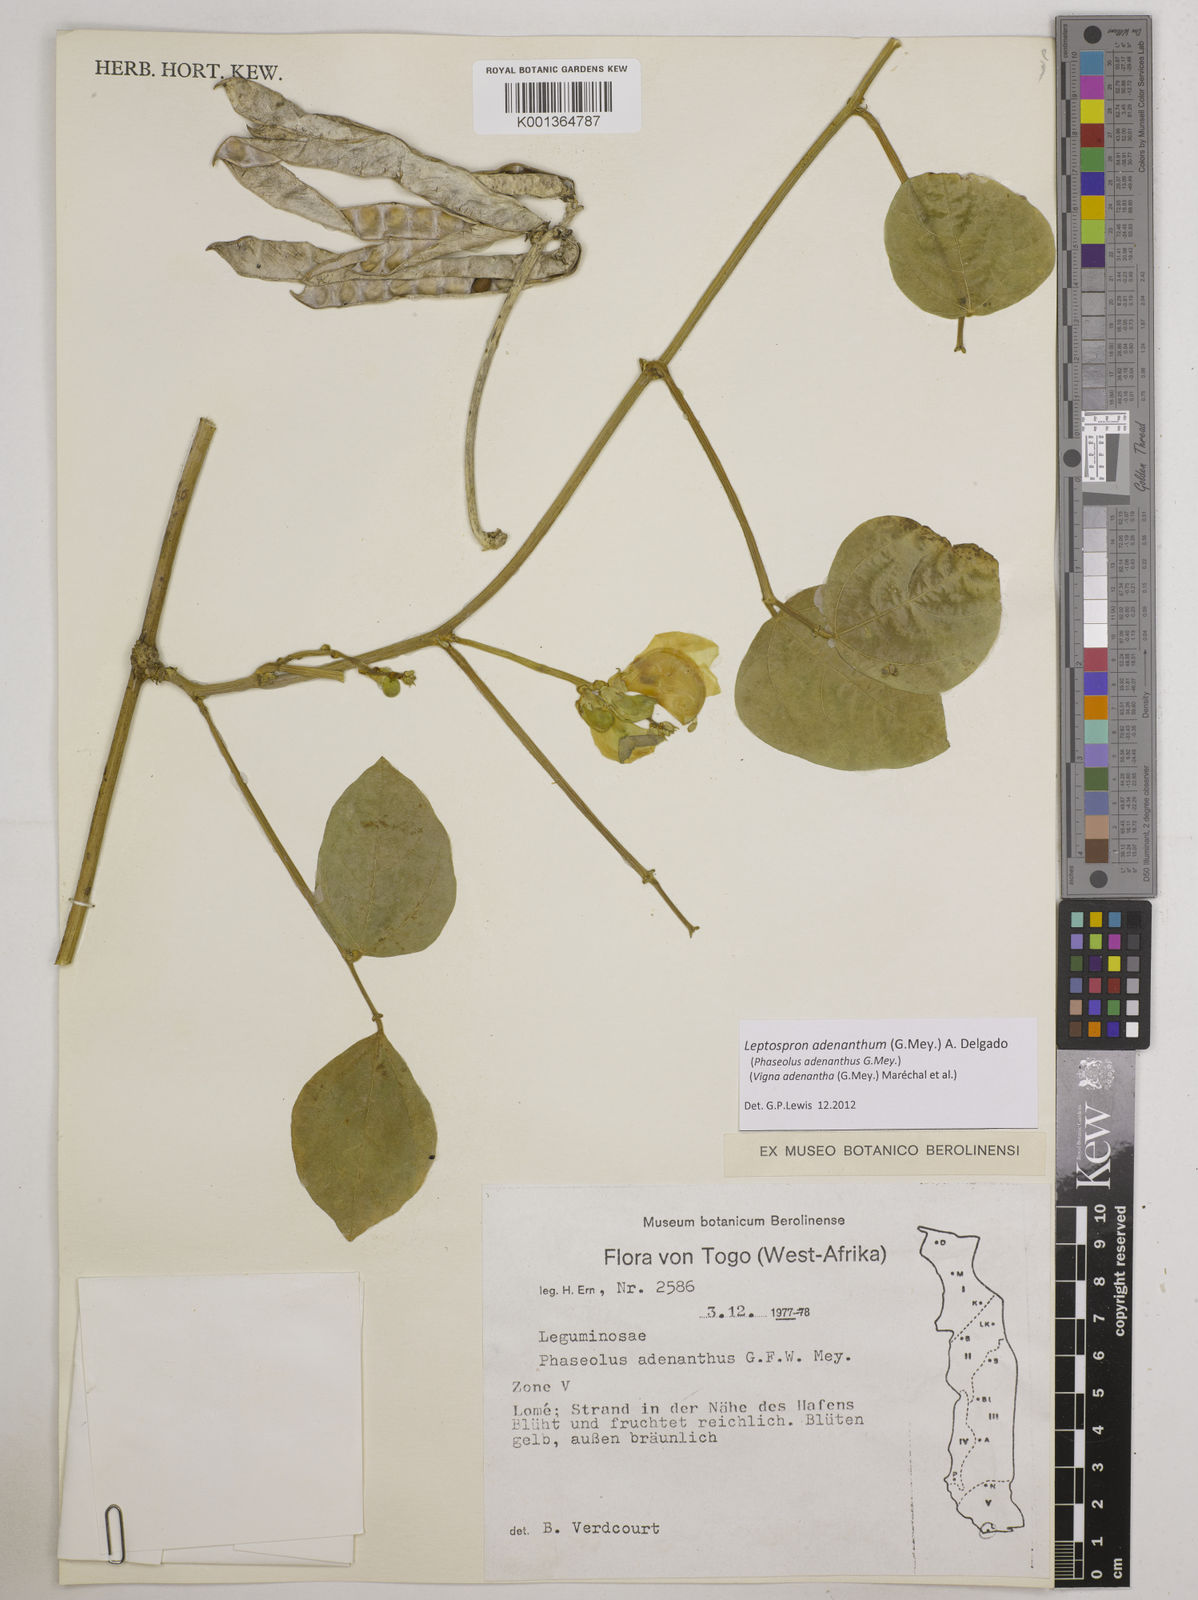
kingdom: Plantae
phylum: Tracheophyta
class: Magnoliopsida
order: Fabales
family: Fabaceae
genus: Leptospron
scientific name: Leptospron adenanthum
